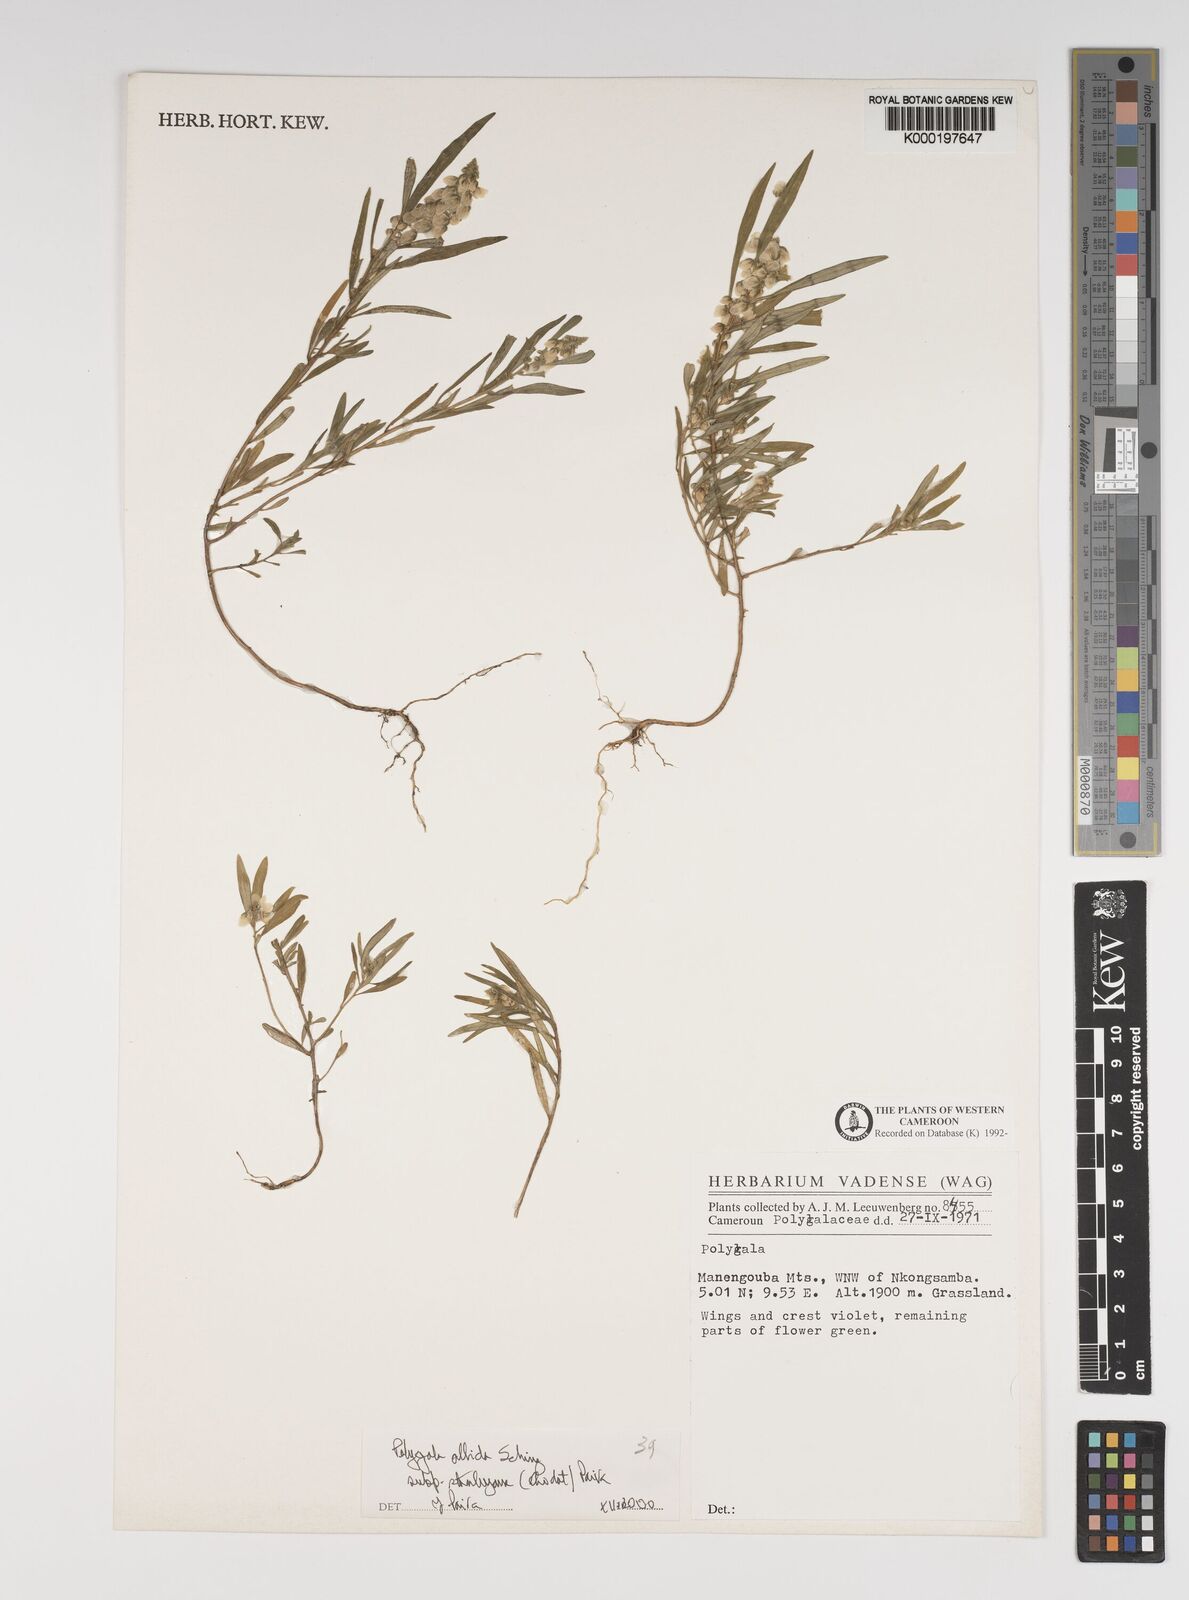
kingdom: Plantae
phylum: Tracheophyta
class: Magnoliopsida
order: Fabales
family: Polygalaceae
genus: Polygala
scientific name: Polygala albida
